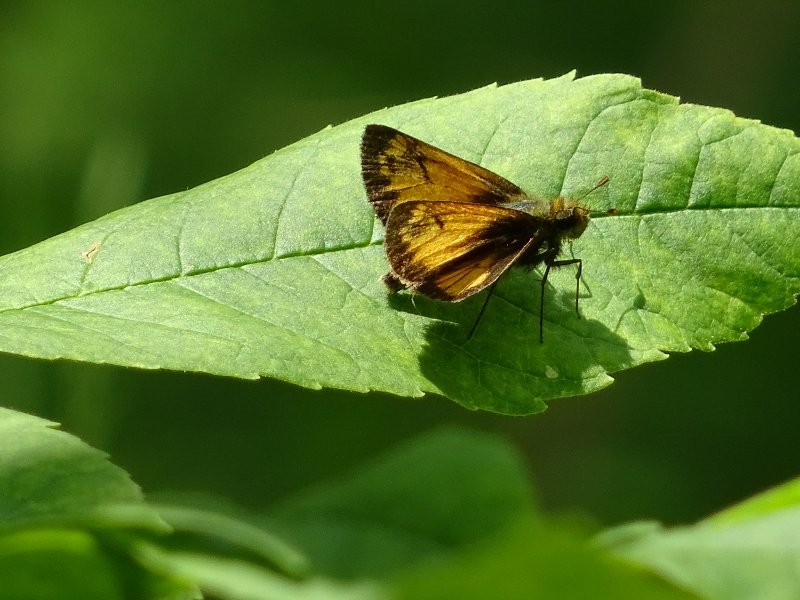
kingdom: Animalia
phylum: Arthropoda
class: Insecta
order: Lepidoptera
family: Hesperiidae
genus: Lon
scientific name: Lon hobomok
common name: Hobomok Skipper
